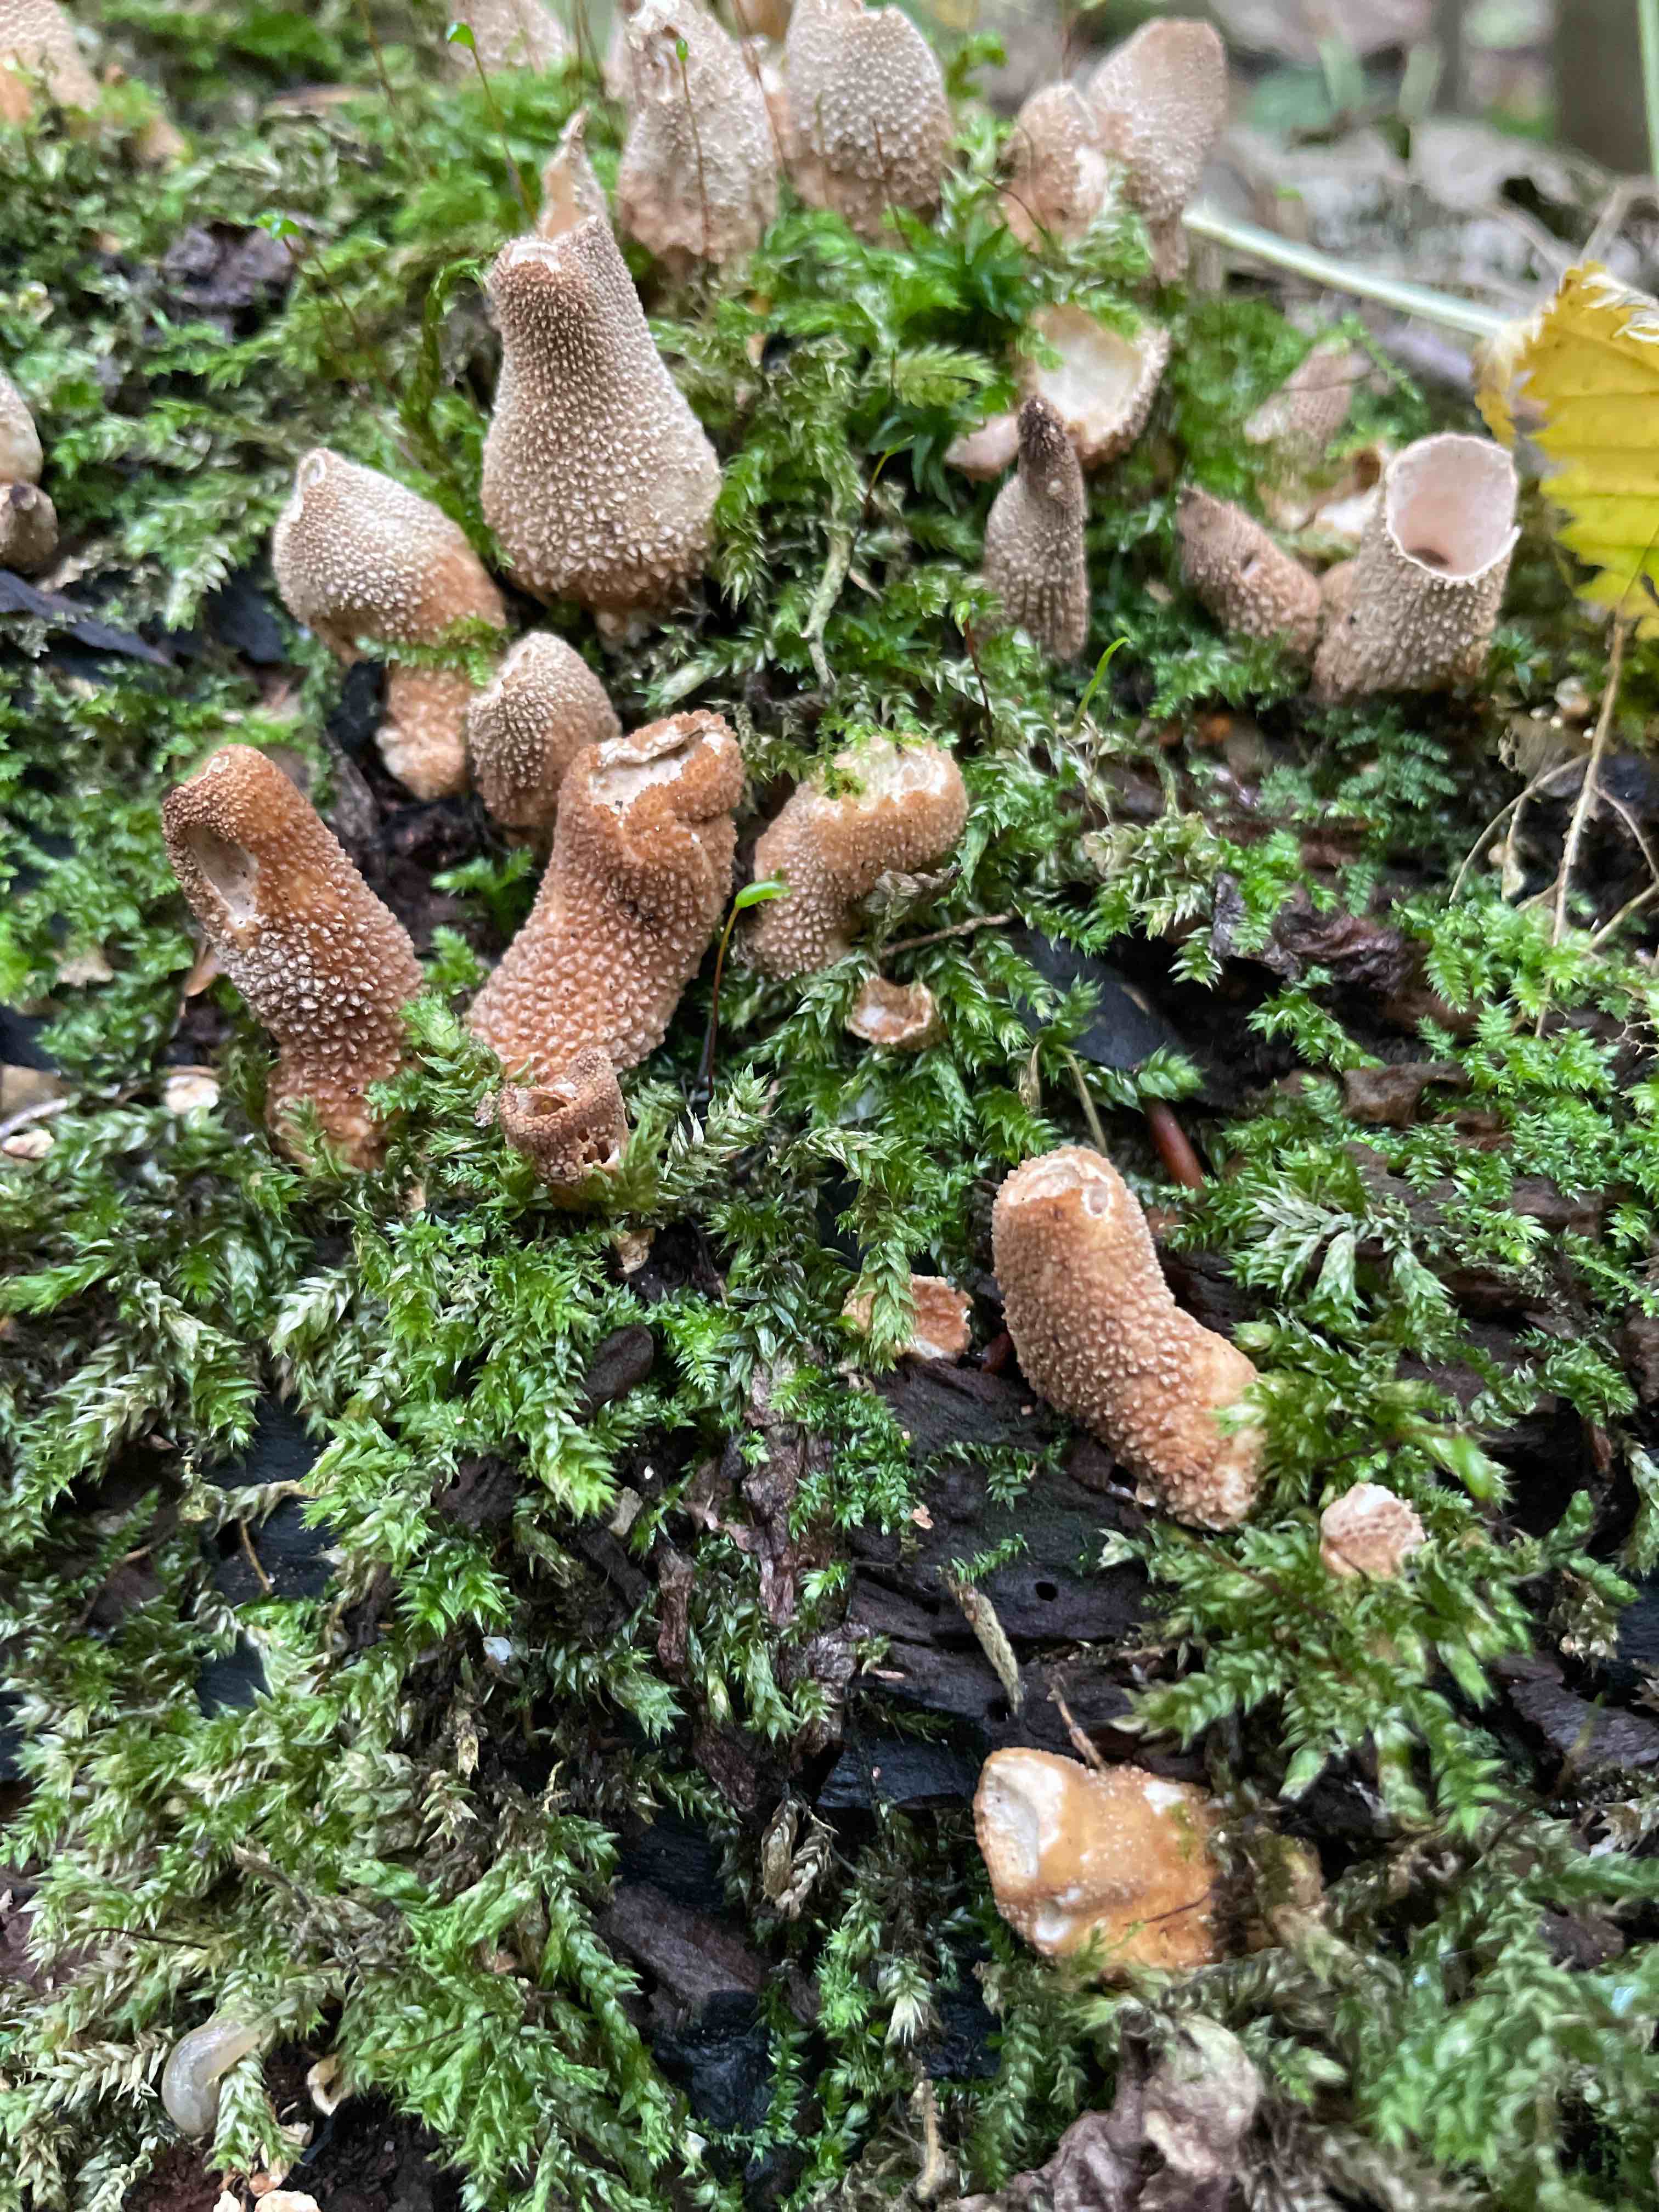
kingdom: Fungi
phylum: Basidiomycota
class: Agaricomycetes
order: Agaricales
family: Lycoperdaceae
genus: Apioperdon
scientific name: Apioperdon pyriforme
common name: pære-støvbold
